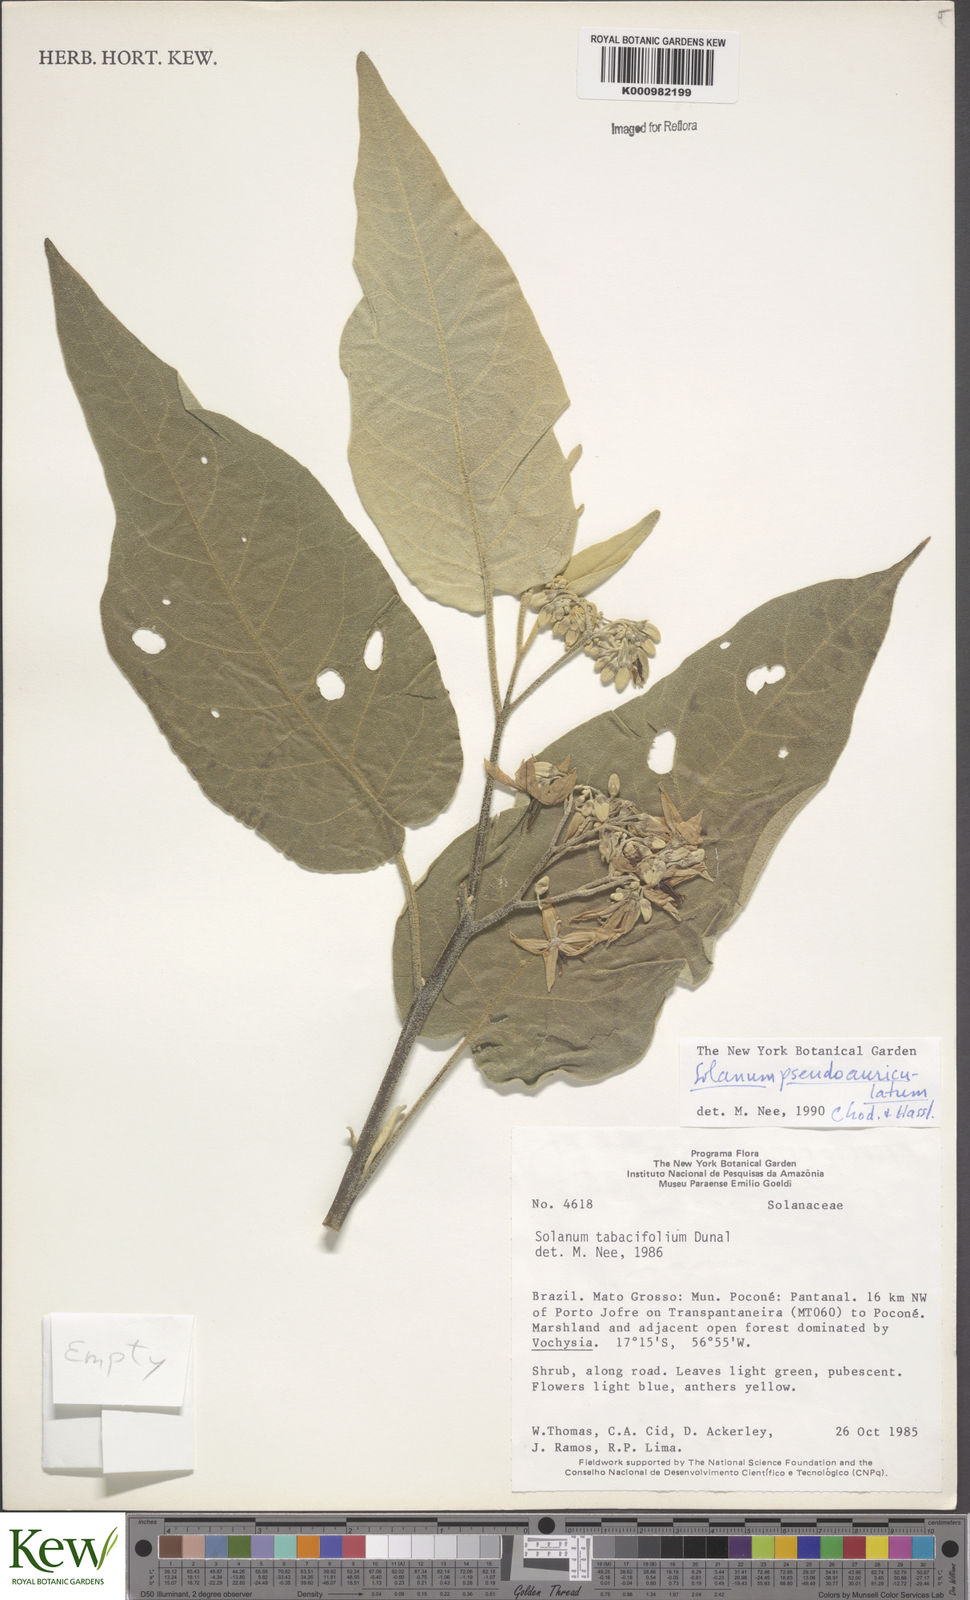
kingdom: Plantae
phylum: Tracheophyta
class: Magnoliopsida
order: Solanales
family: Solanaceae
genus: Solanum
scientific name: Solanum
